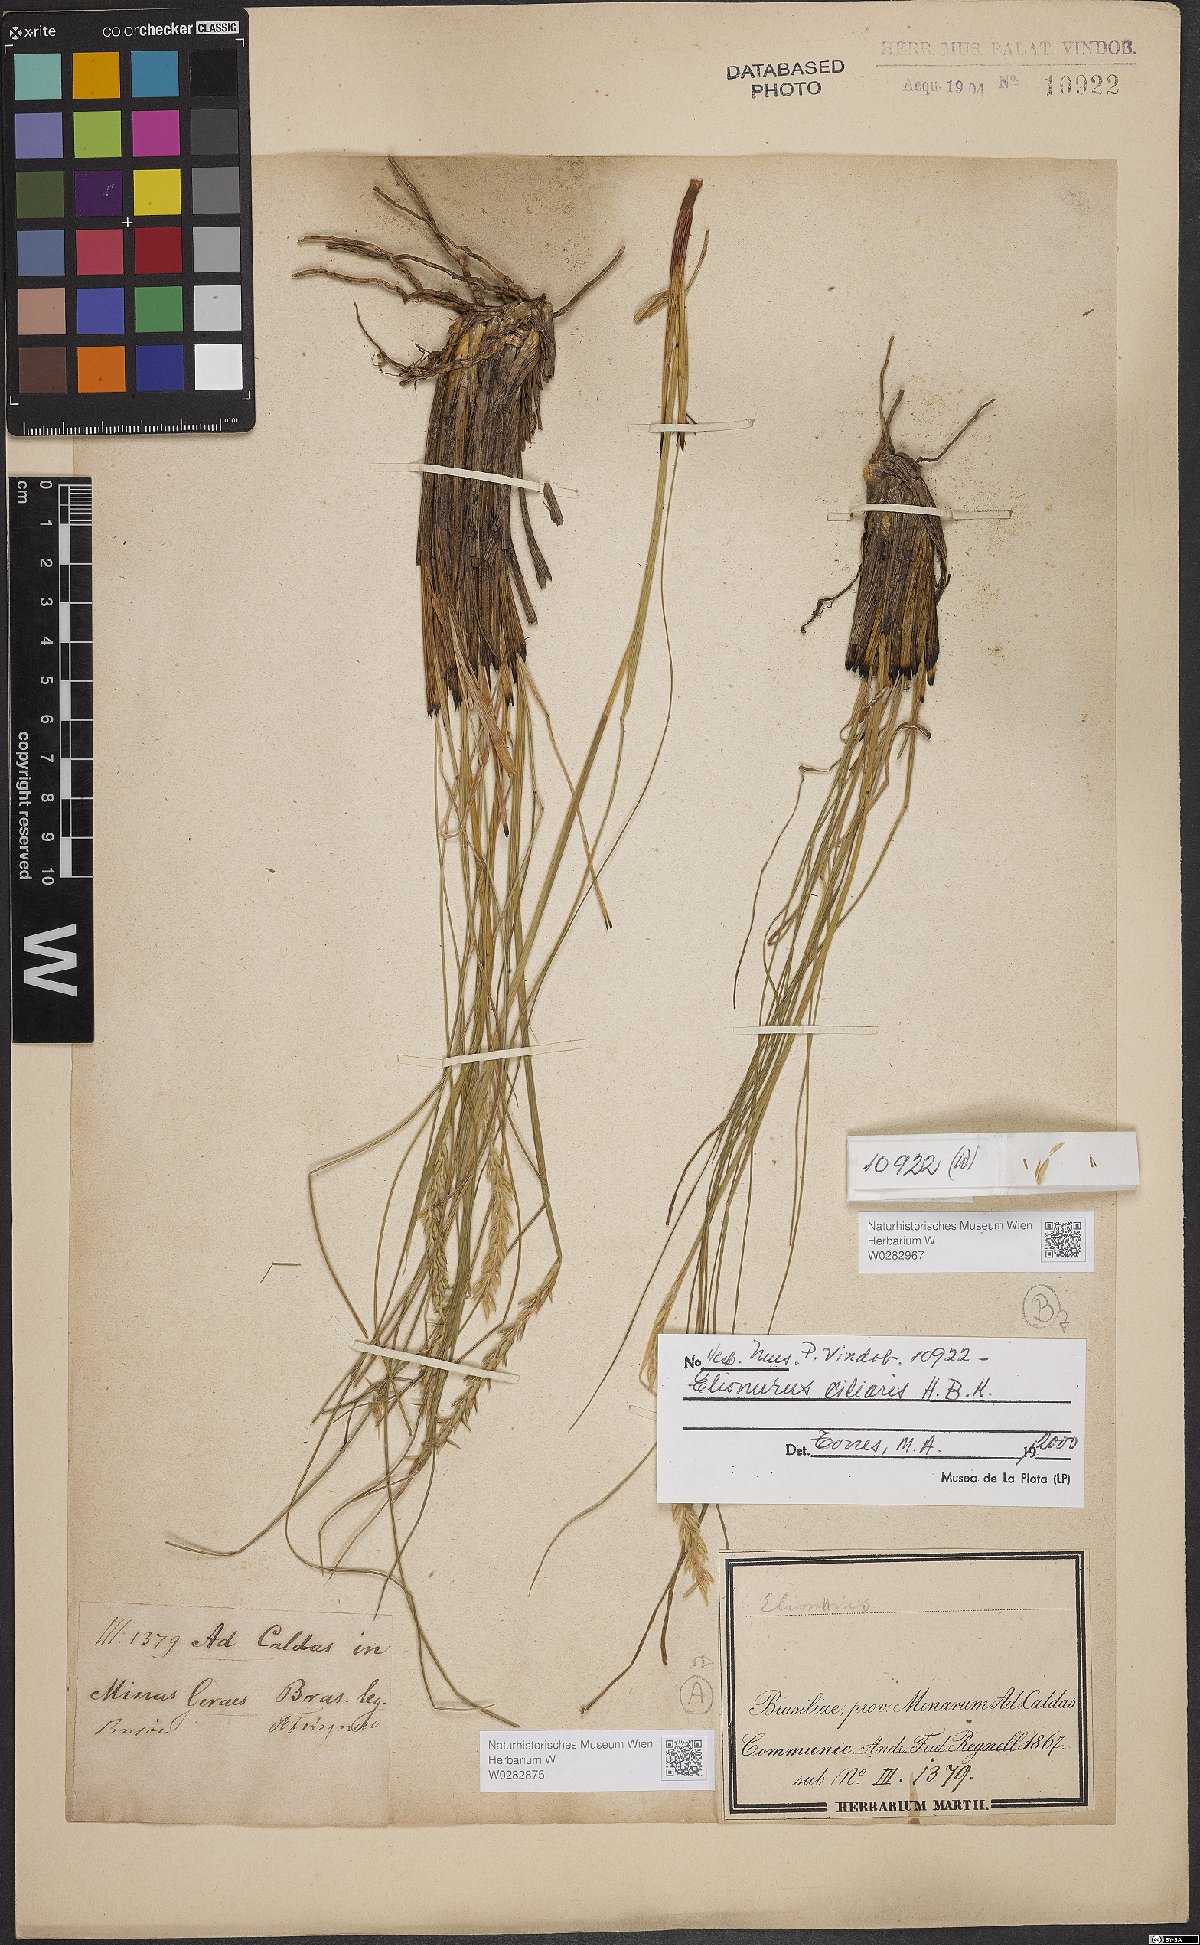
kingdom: Plantae
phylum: Tracheophyta
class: Liliopsida
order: Poales
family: Poaceae
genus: Elionurus
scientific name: Elionurus ciliaris
